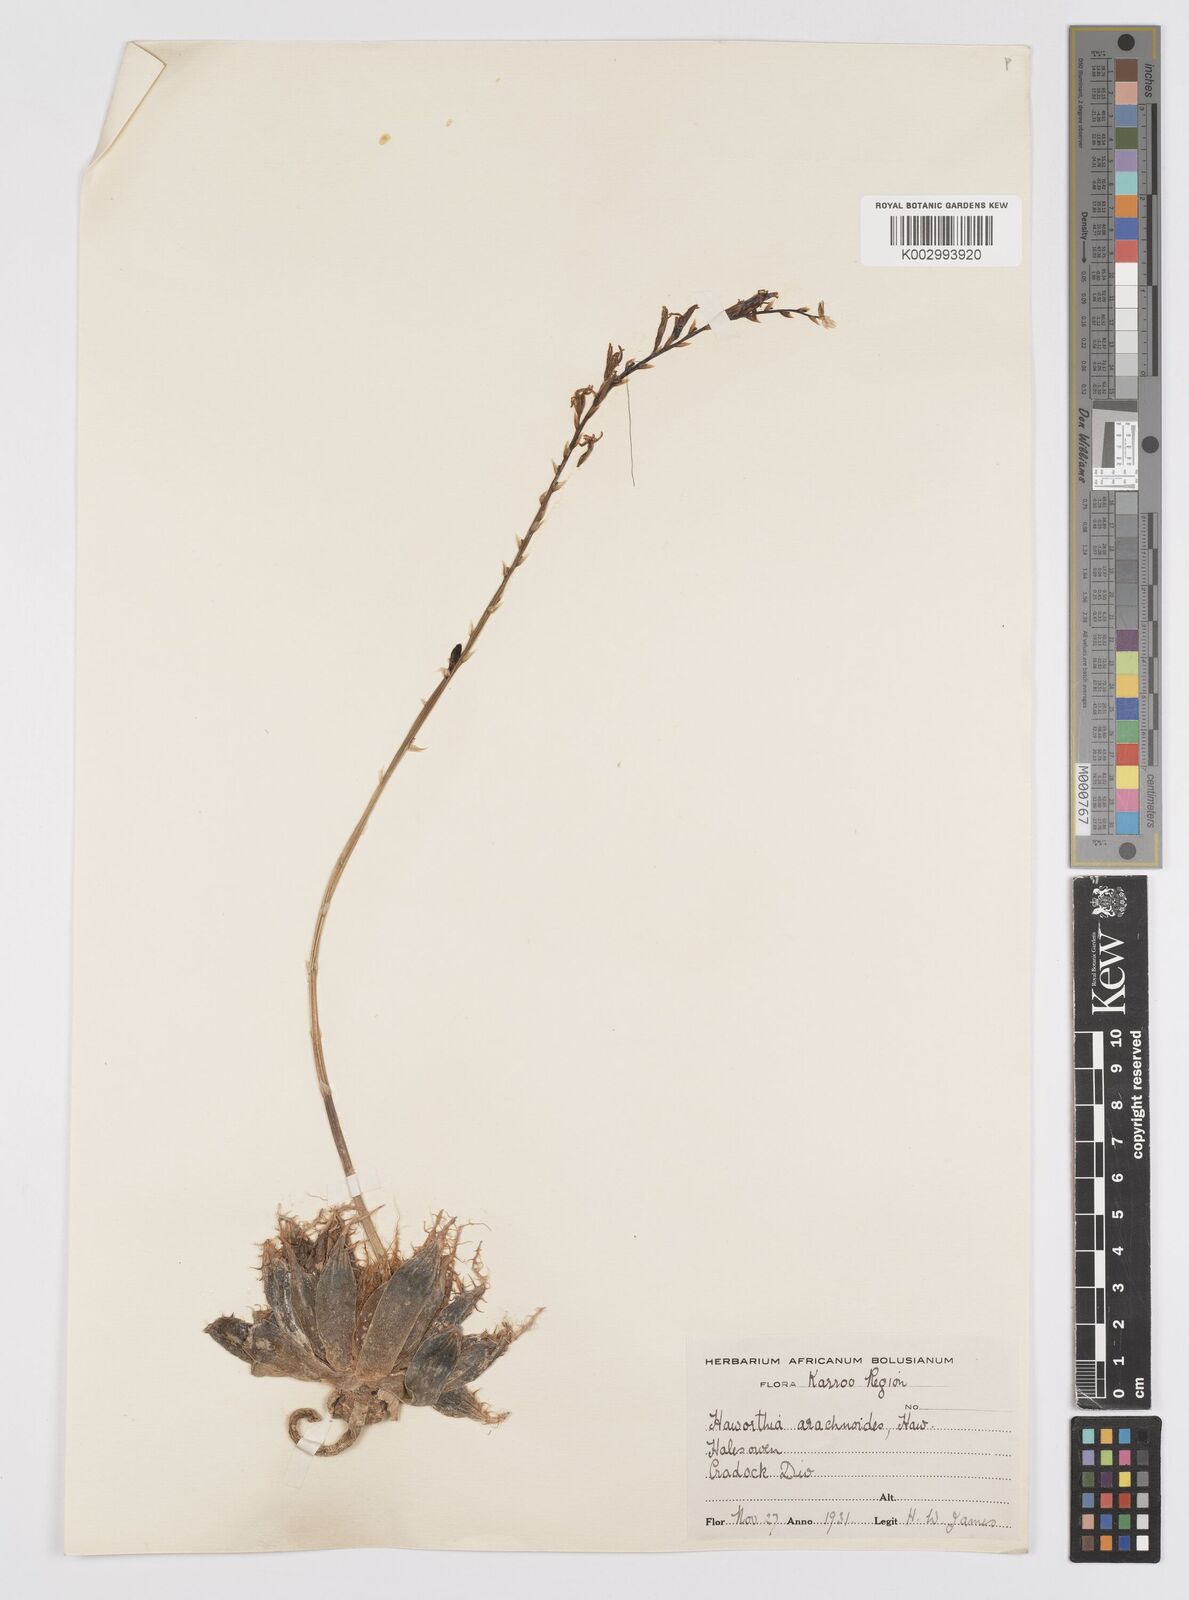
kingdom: Plantae
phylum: Tracheophyta
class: Liliopsida
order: Asparagales
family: Asphodelaceae
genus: Haworthia
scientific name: Haworthia
